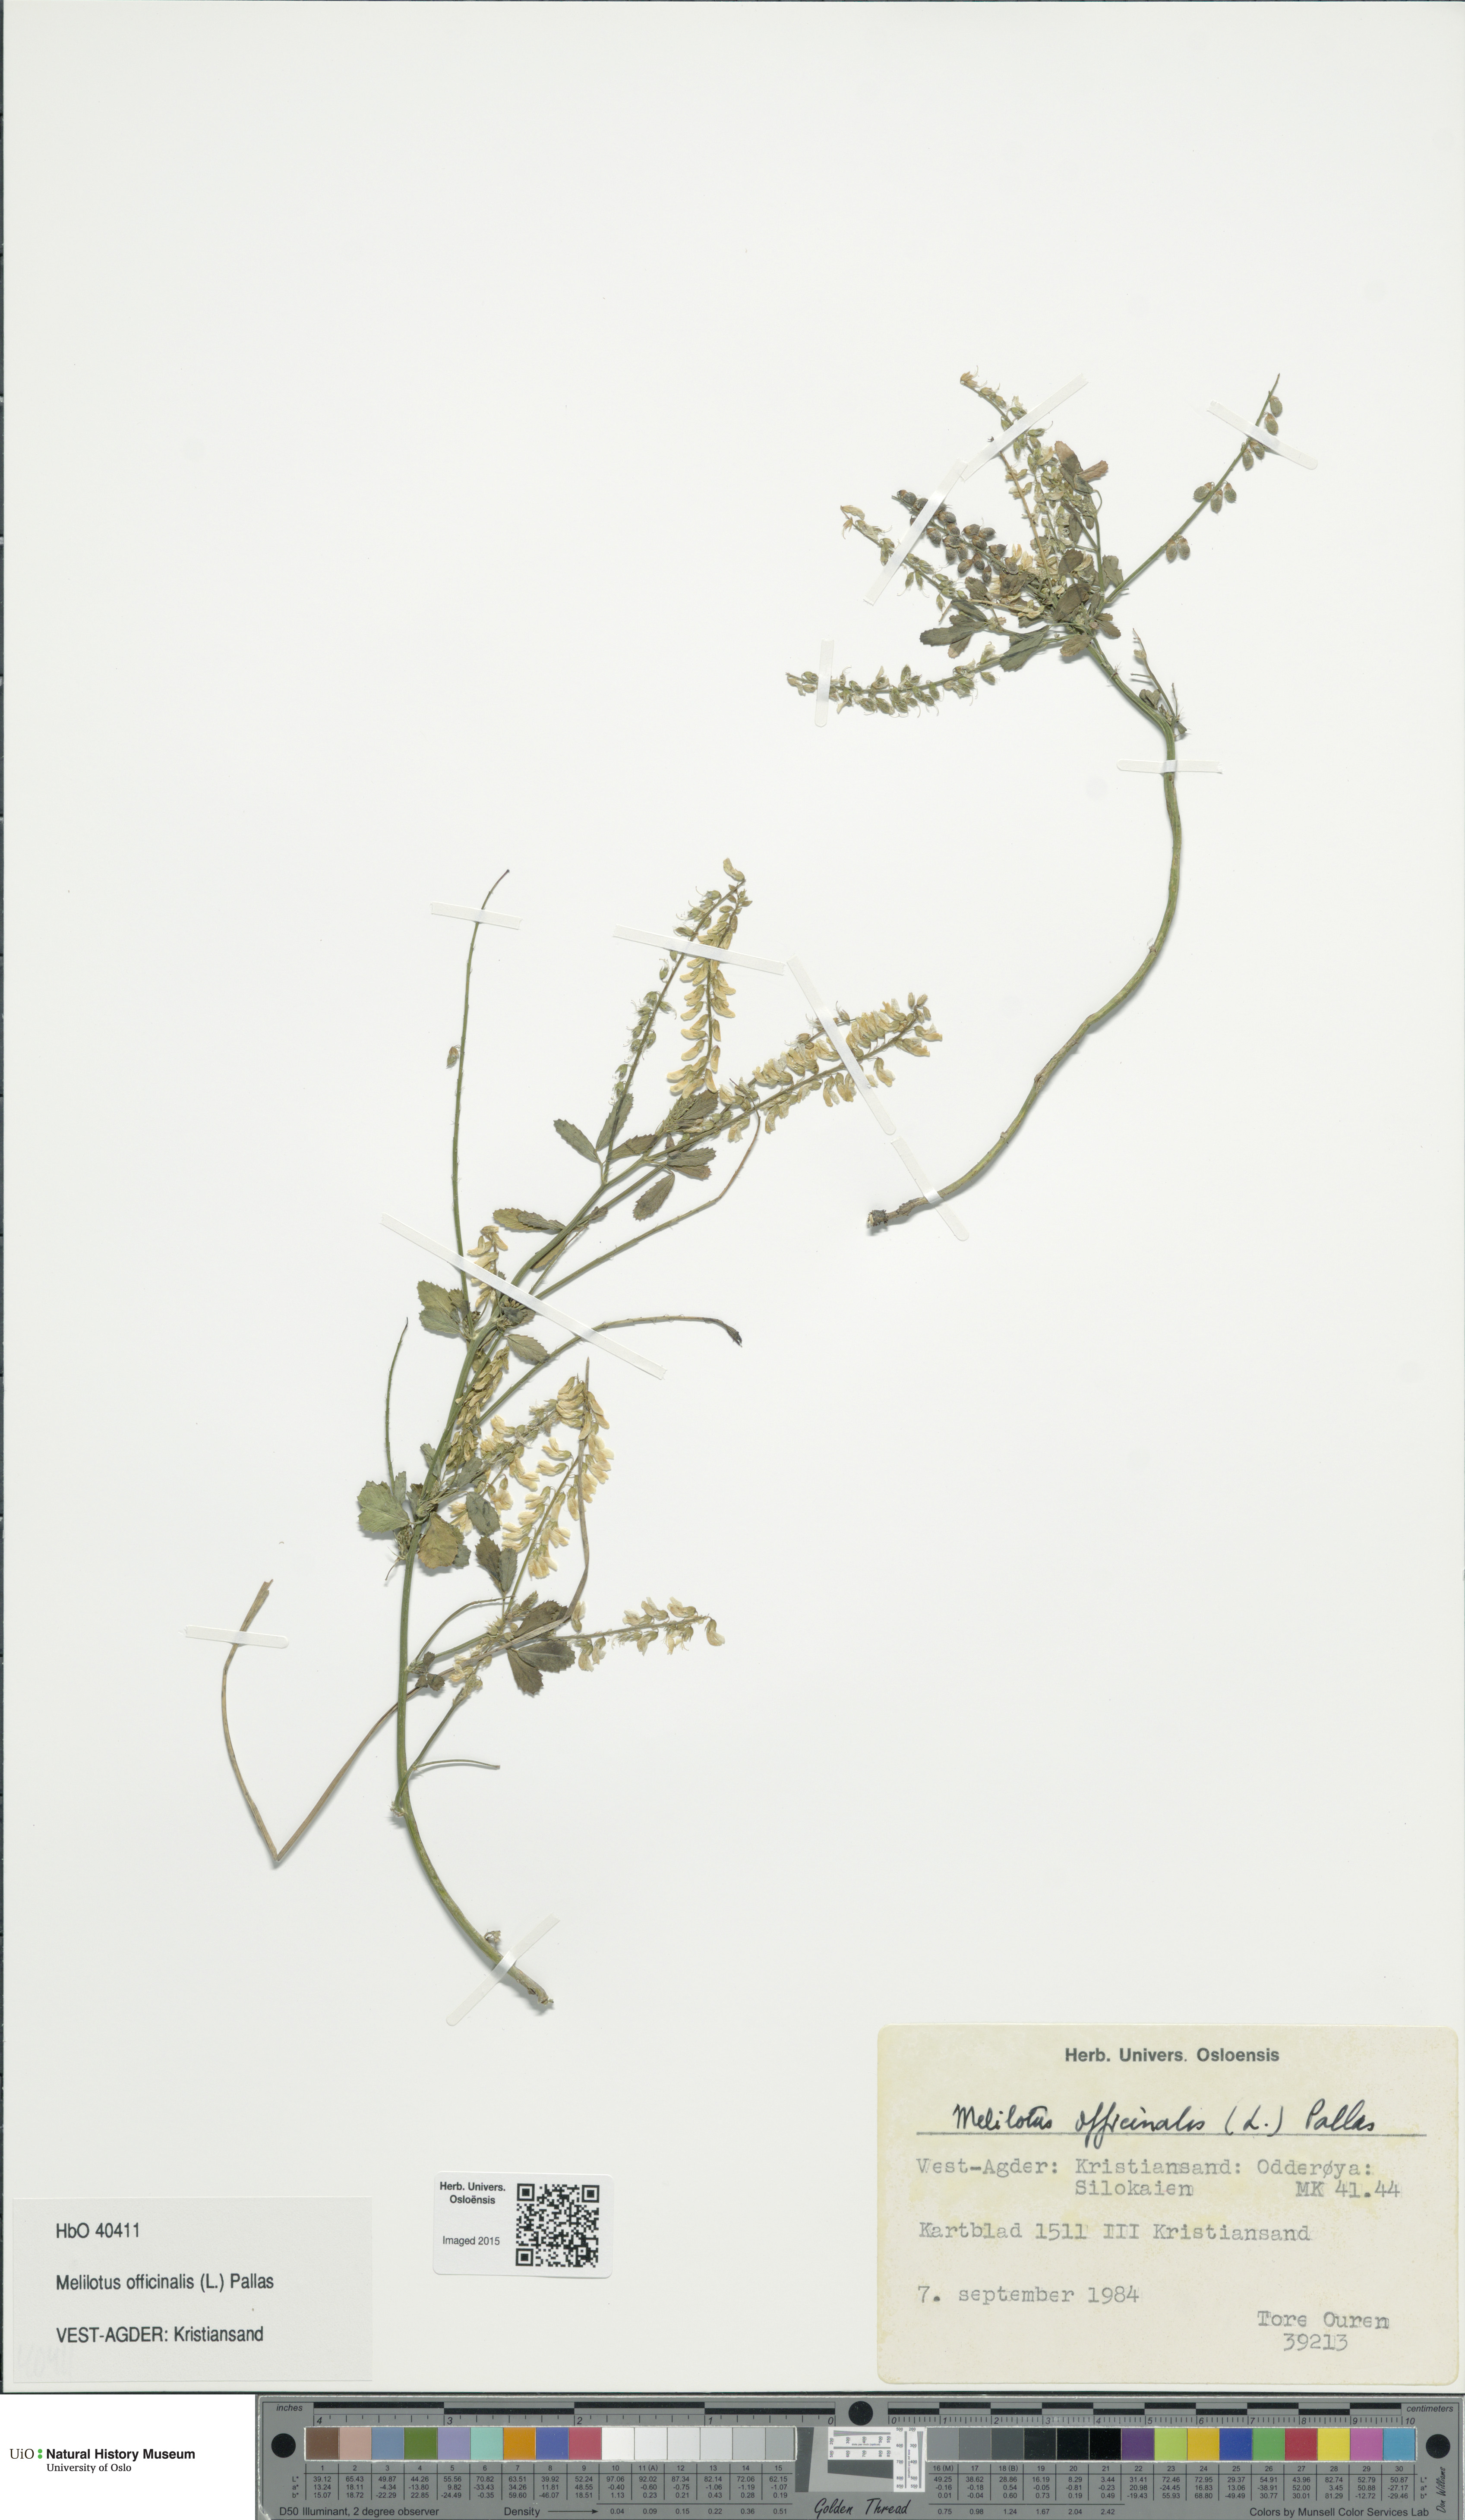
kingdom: Plantae
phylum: Tracheophyta
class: Magnoliopsida
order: Fabales
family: Fabaceae
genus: Melilotus
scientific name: Melilotus officinalis
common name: Sweetclover
